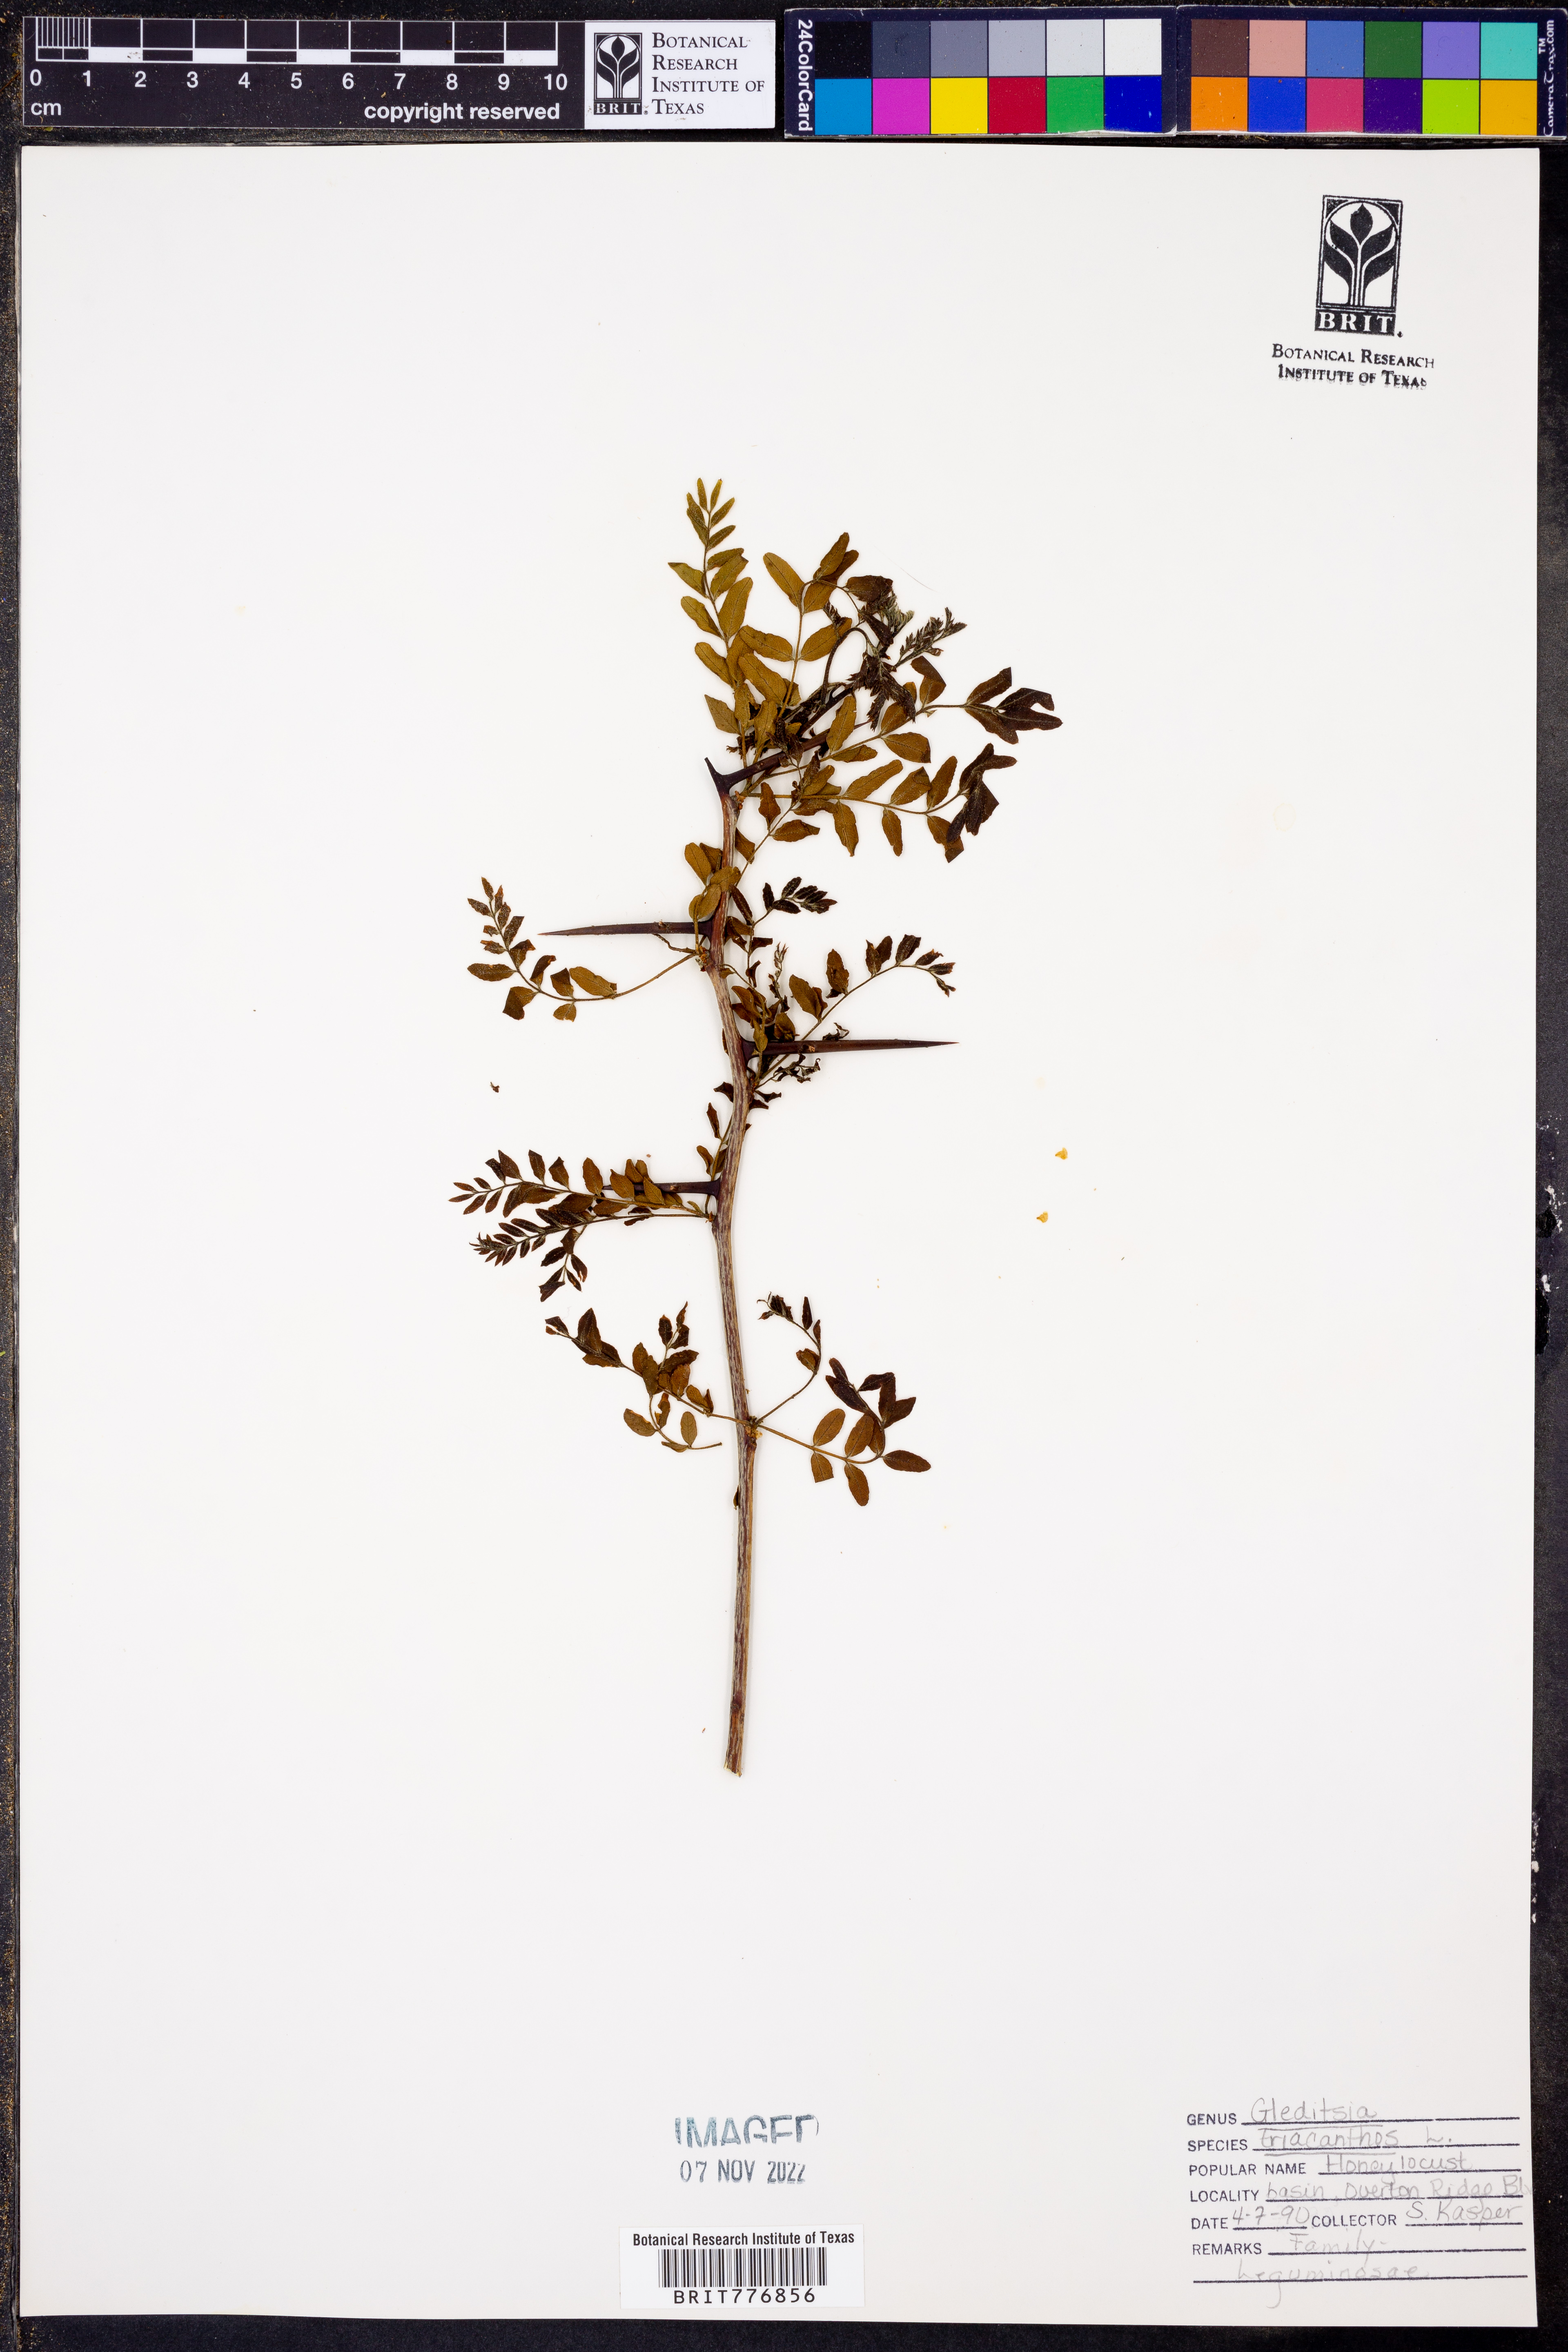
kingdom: Plantae
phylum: Tracheophyta
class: Magnoliopsida
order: Fabales
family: Fabaceae
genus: Gleditsia
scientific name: Gleditsia triacanthos
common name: Common honeylocust
